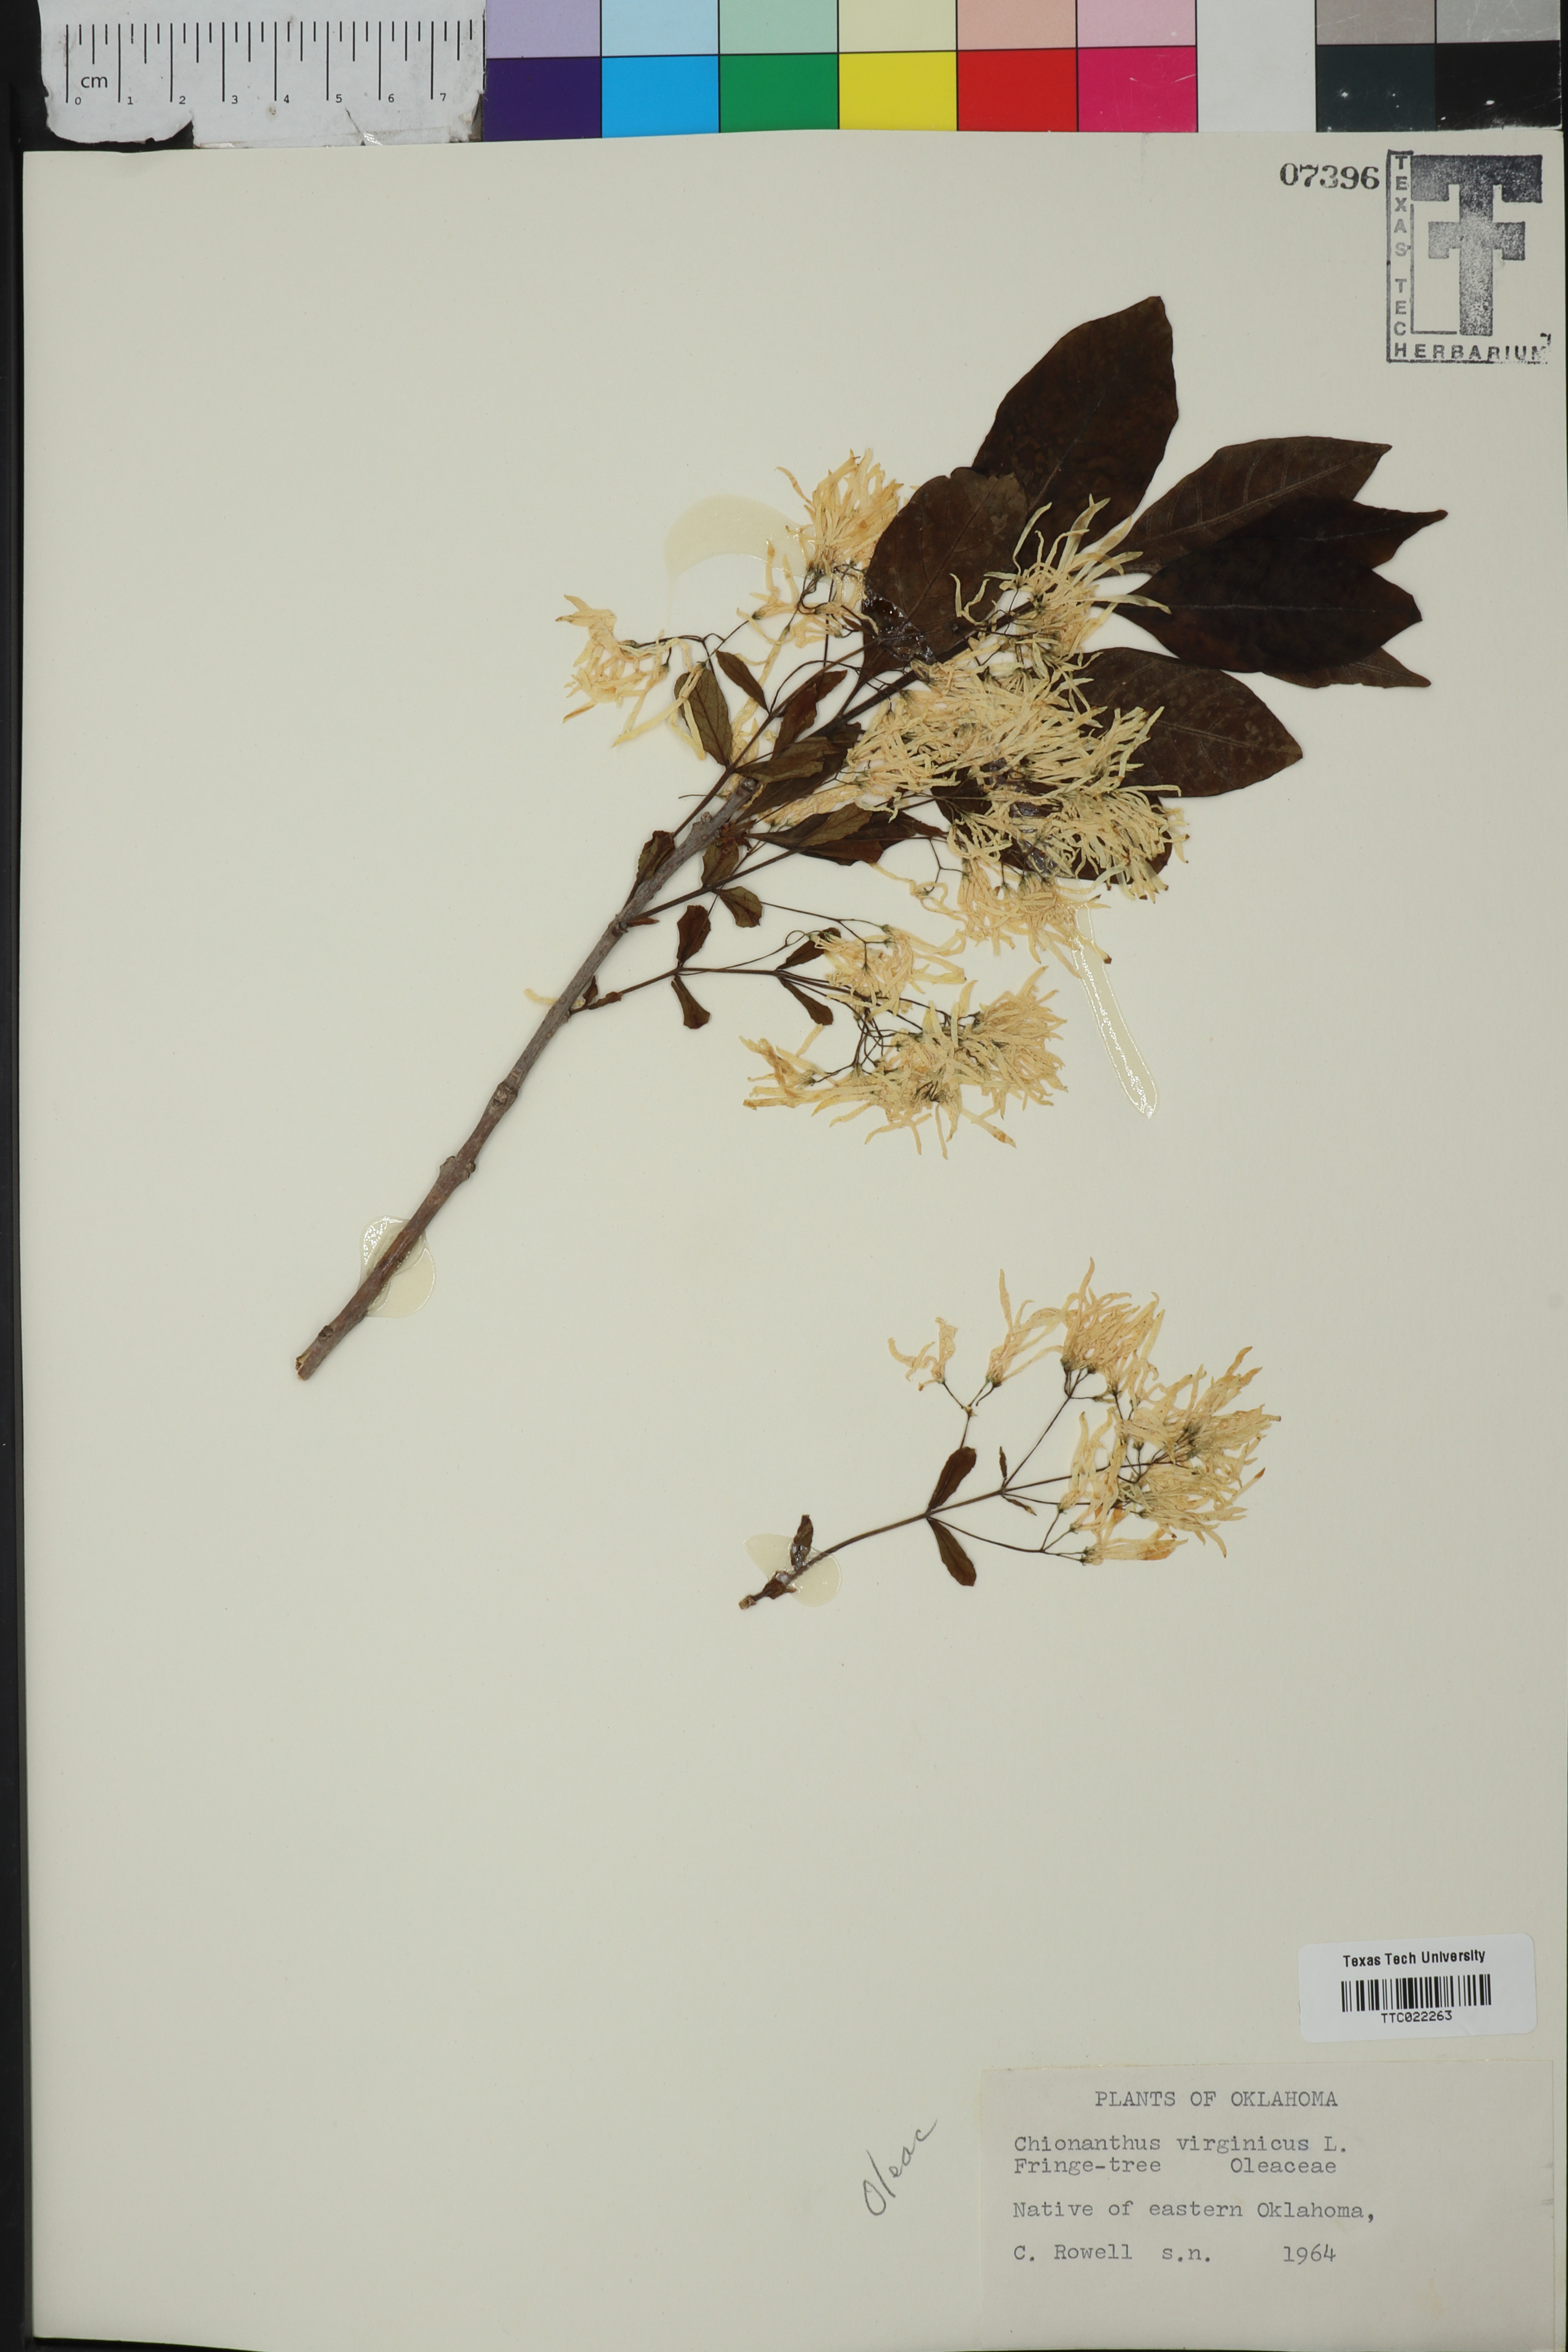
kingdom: Plantae
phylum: Tracheophyta
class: Magnoliopsida
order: Lamiales
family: Oleaceae
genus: Chionanthus
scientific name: Chionanthus virginicus
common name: American fringetree
